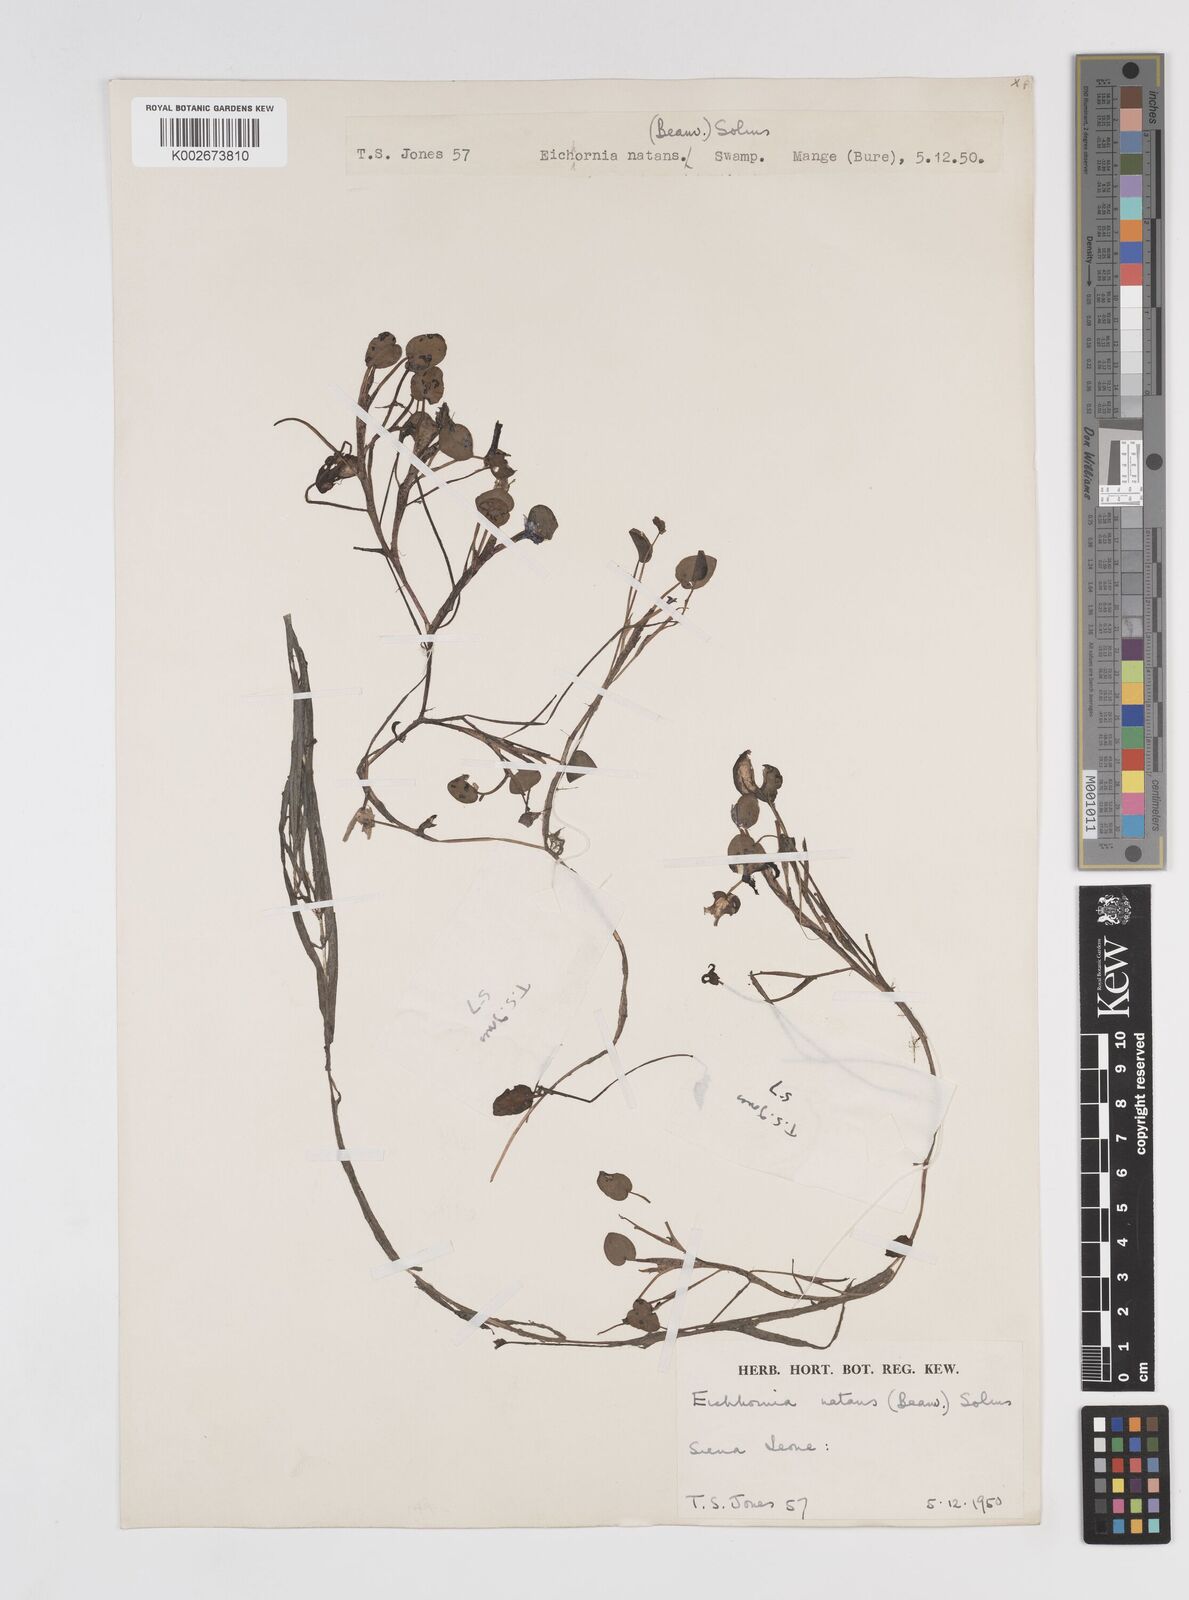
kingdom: Plantae
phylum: Tracheophyta
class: Liliopsida
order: Commelinales
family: Pontederiaceae
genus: Pontederia
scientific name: Pontederia diversifolia
